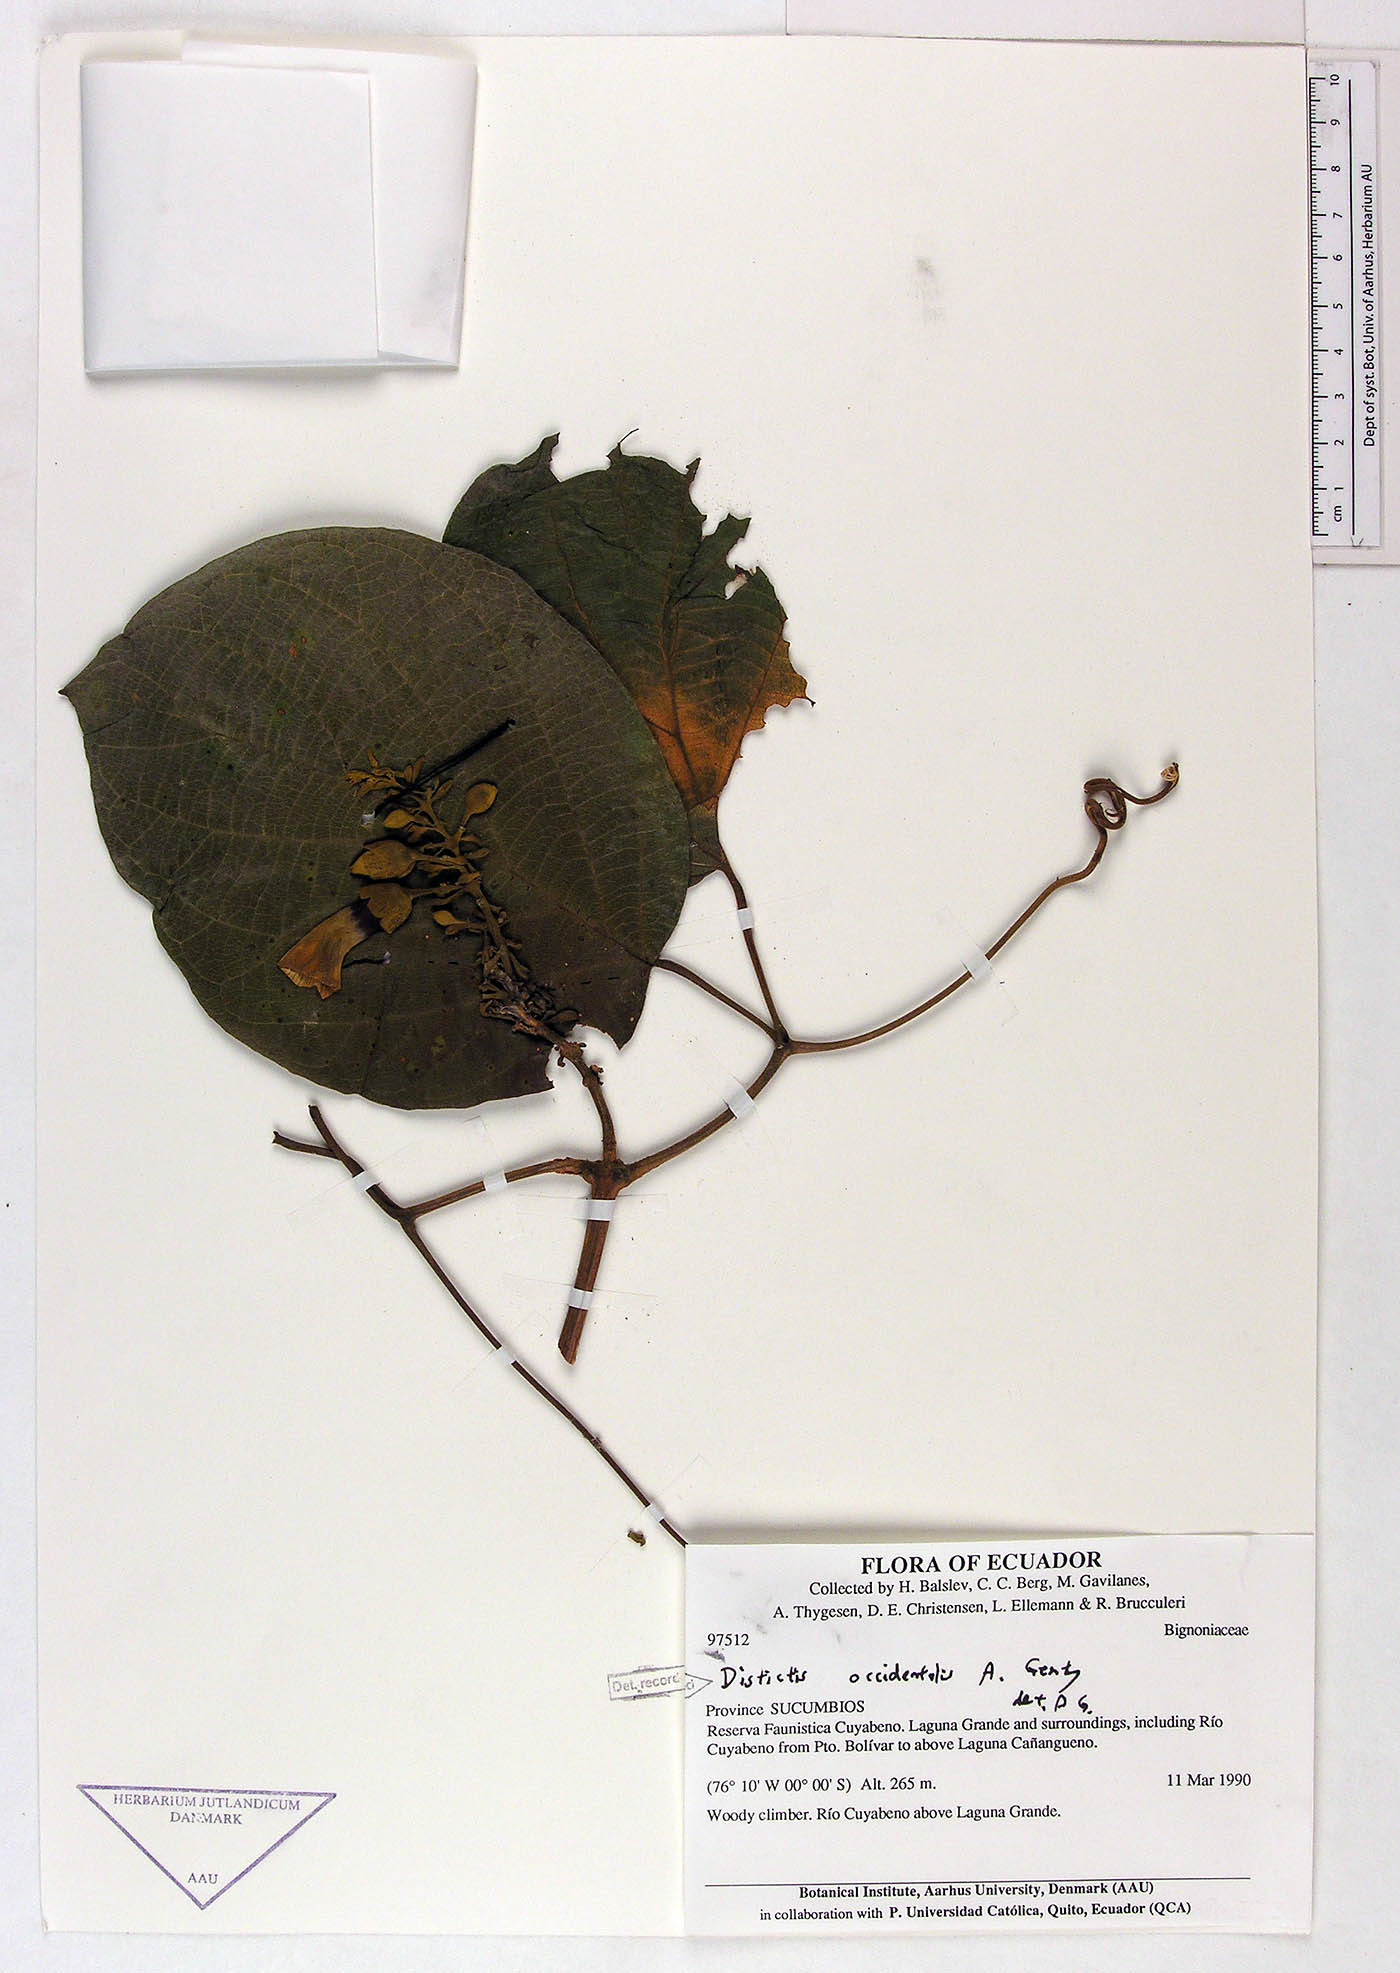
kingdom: Plantae
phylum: Tracheophyta
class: Magnoliopsida
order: Lamiales
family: Bignoniaceae
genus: Amphilophium
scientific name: Amphilophium occidentale
